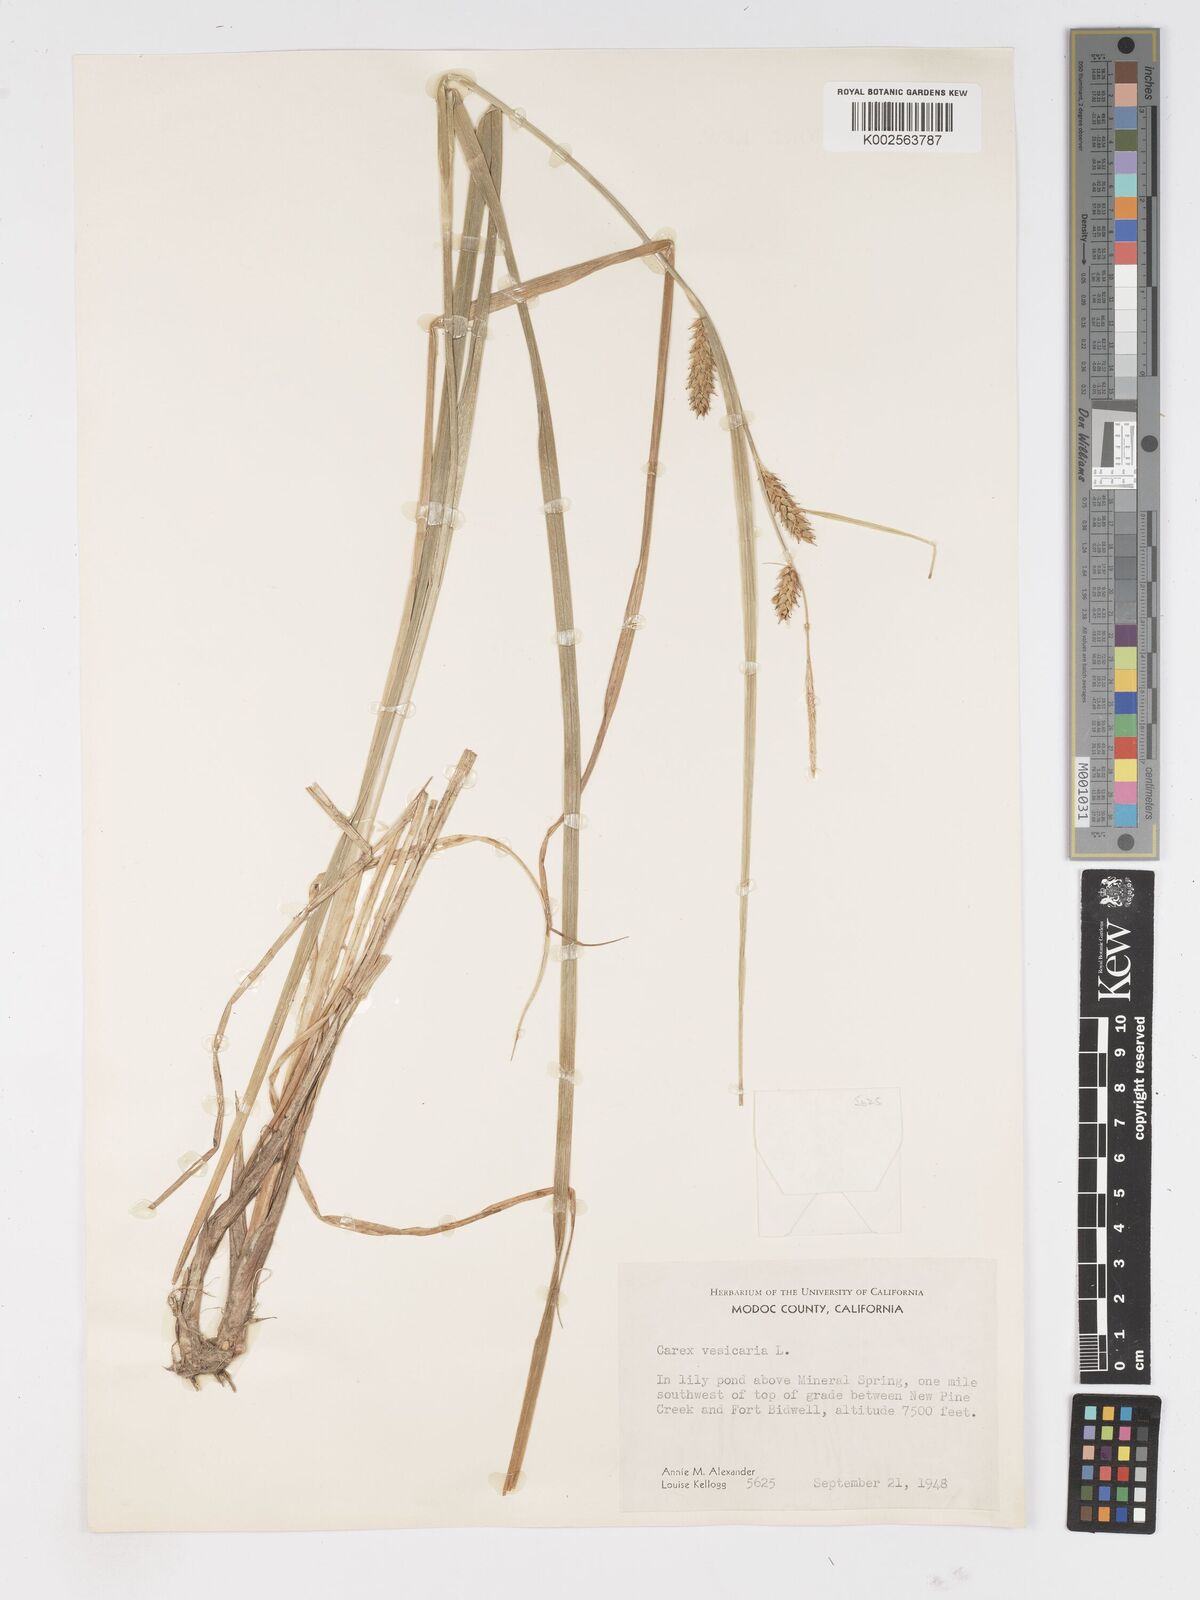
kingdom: Plantae
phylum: Tracheophyta
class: Liliopsida
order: Poales
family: Cyperaceae
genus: Carex
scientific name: Carex vesicaria
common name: Bladder-sedge
